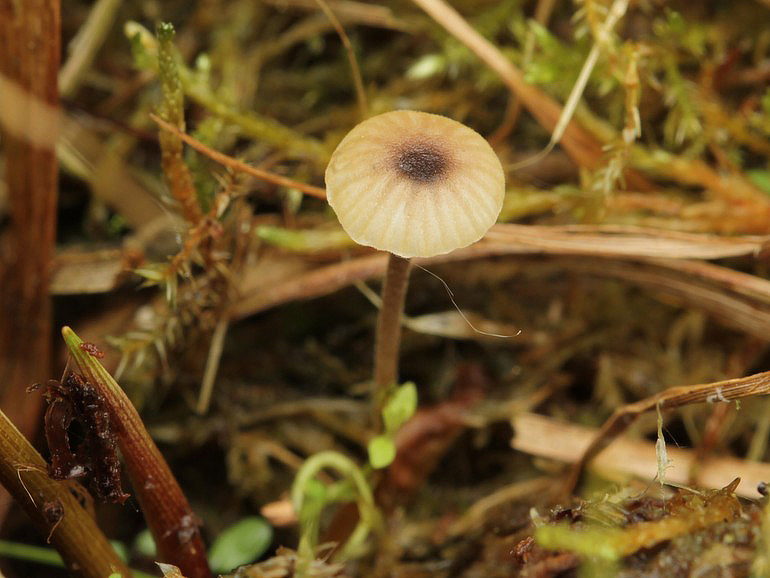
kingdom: Fungi
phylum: Basidiomycota
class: Agaricomycetes
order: Hymenochaetales
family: Rickenellaceae
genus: Rickenella
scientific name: Rickenella swartzii
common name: finstokket mosnavlehat
